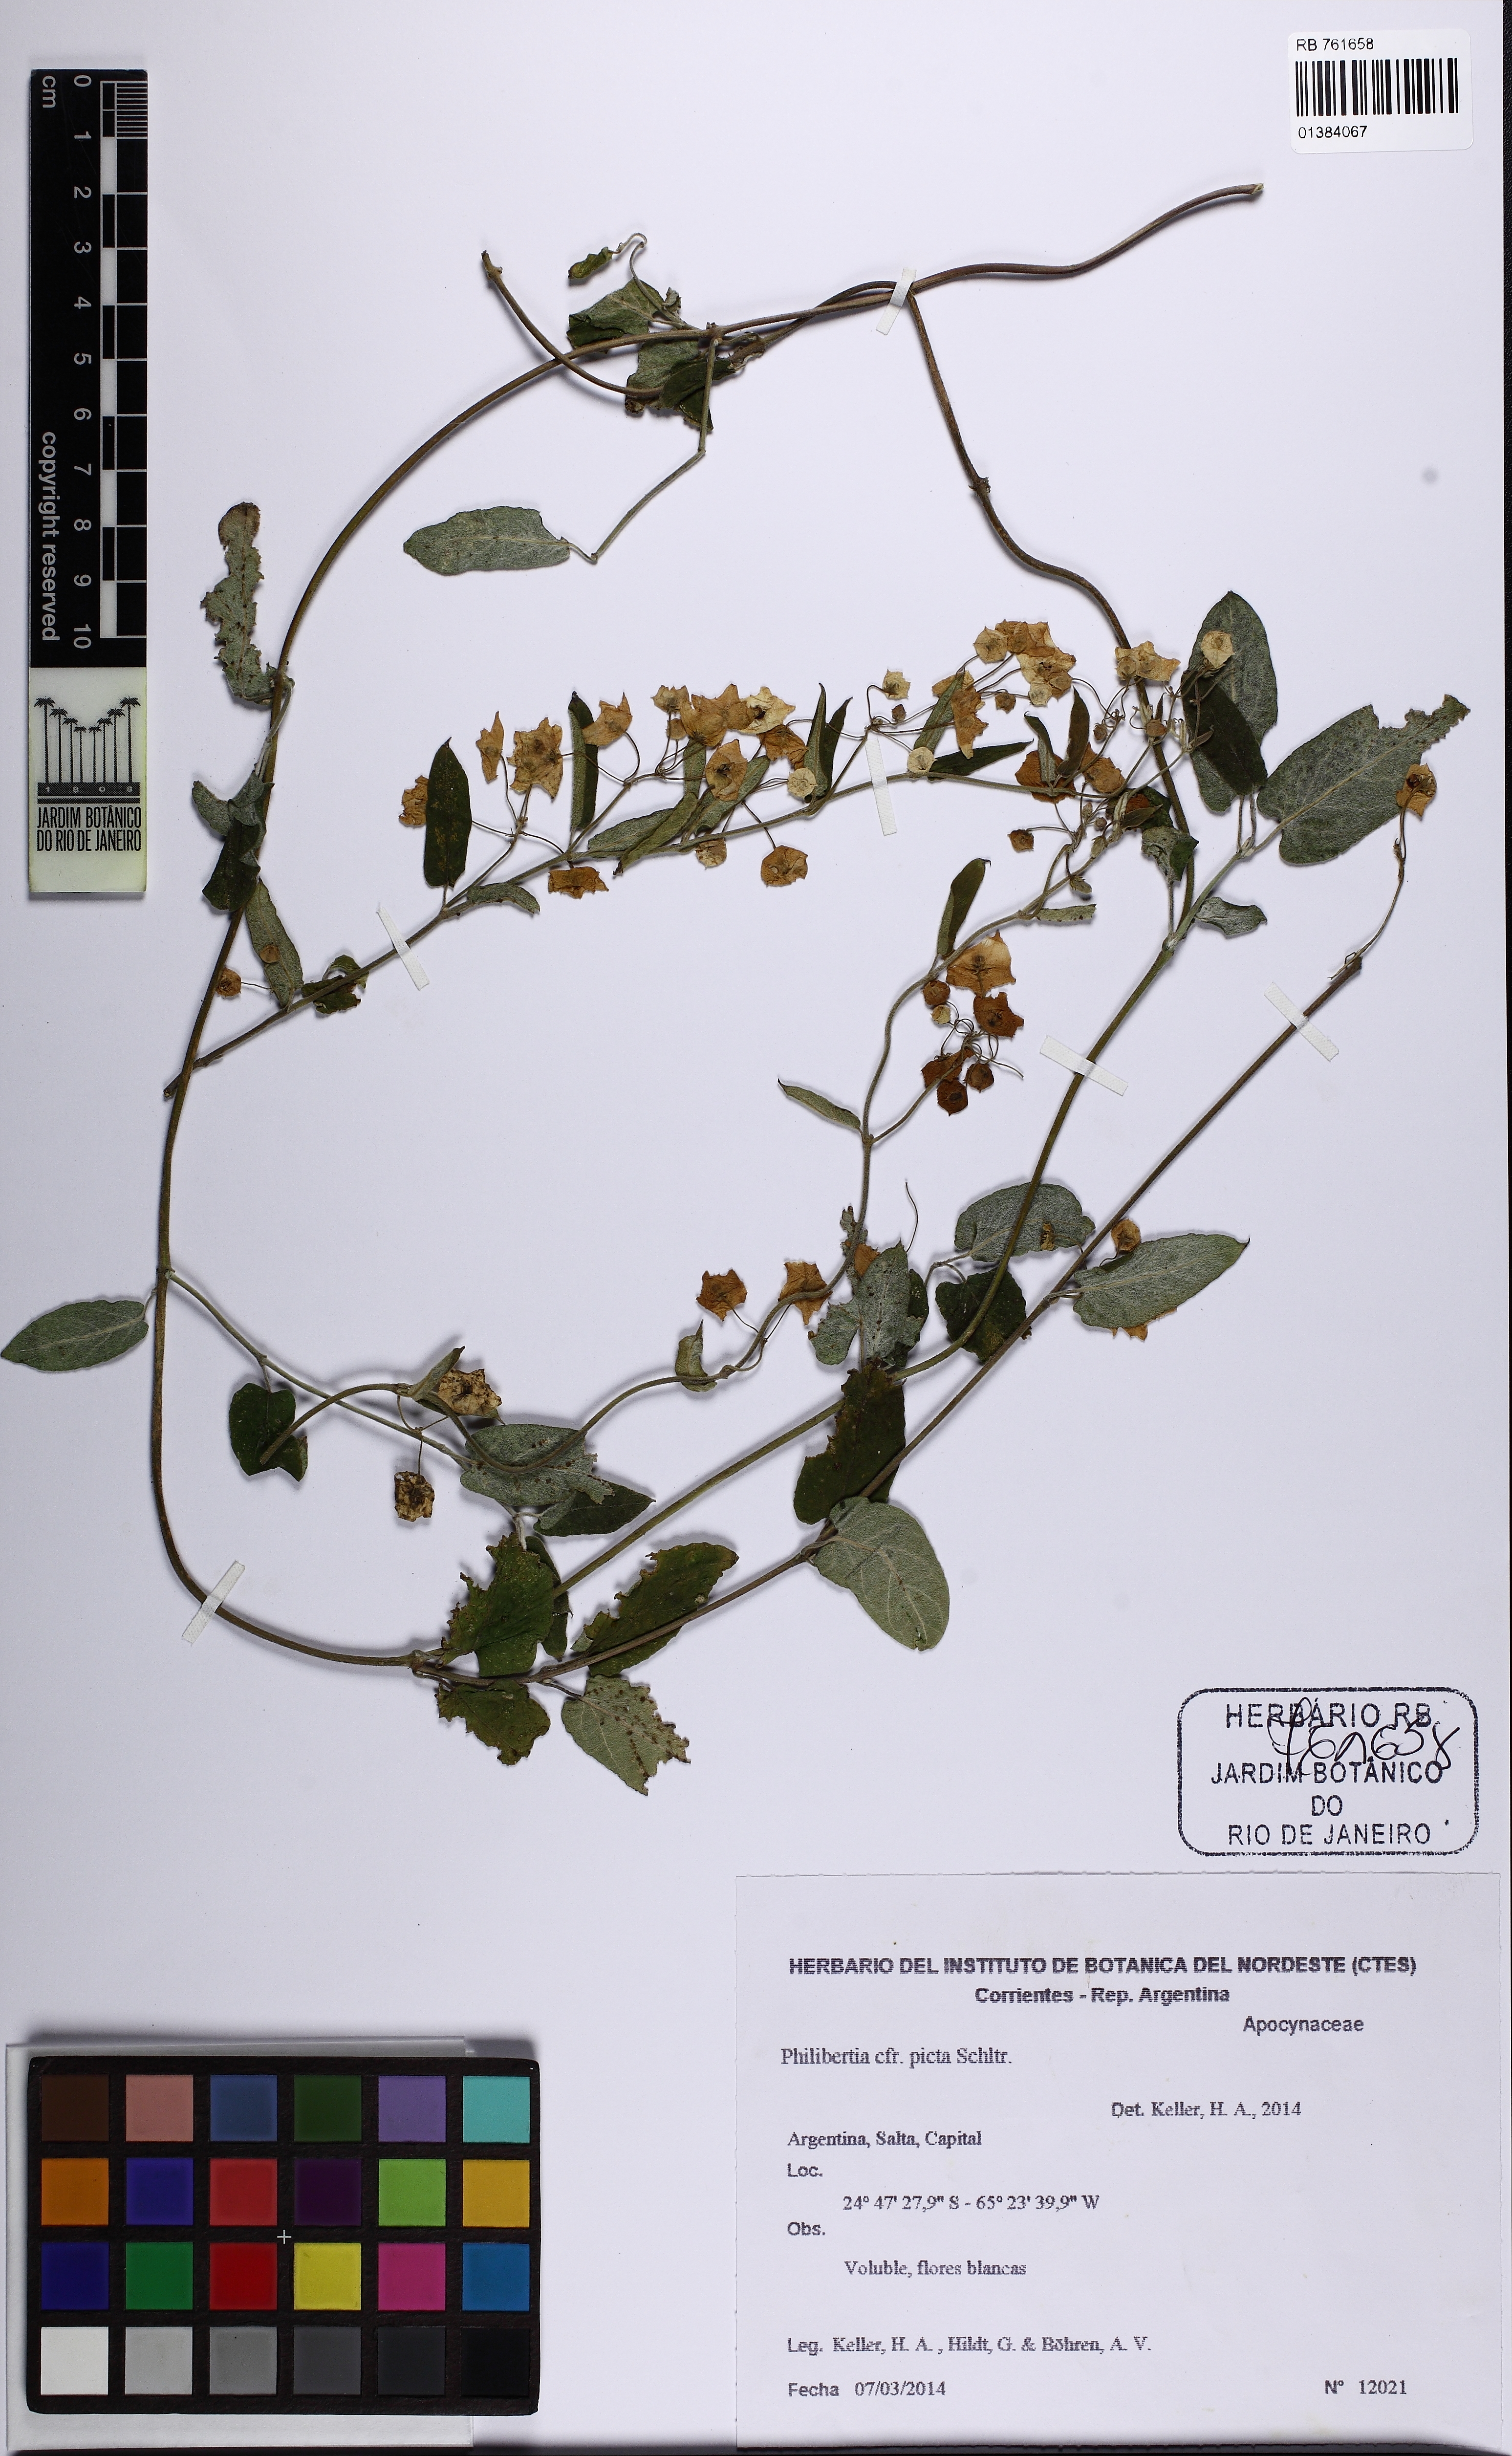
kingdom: Plantae
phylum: Tracheophyta
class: Magnoliopsida
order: Gentianales
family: Apocynaceae
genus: Philibertia
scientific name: Philibertia picta
